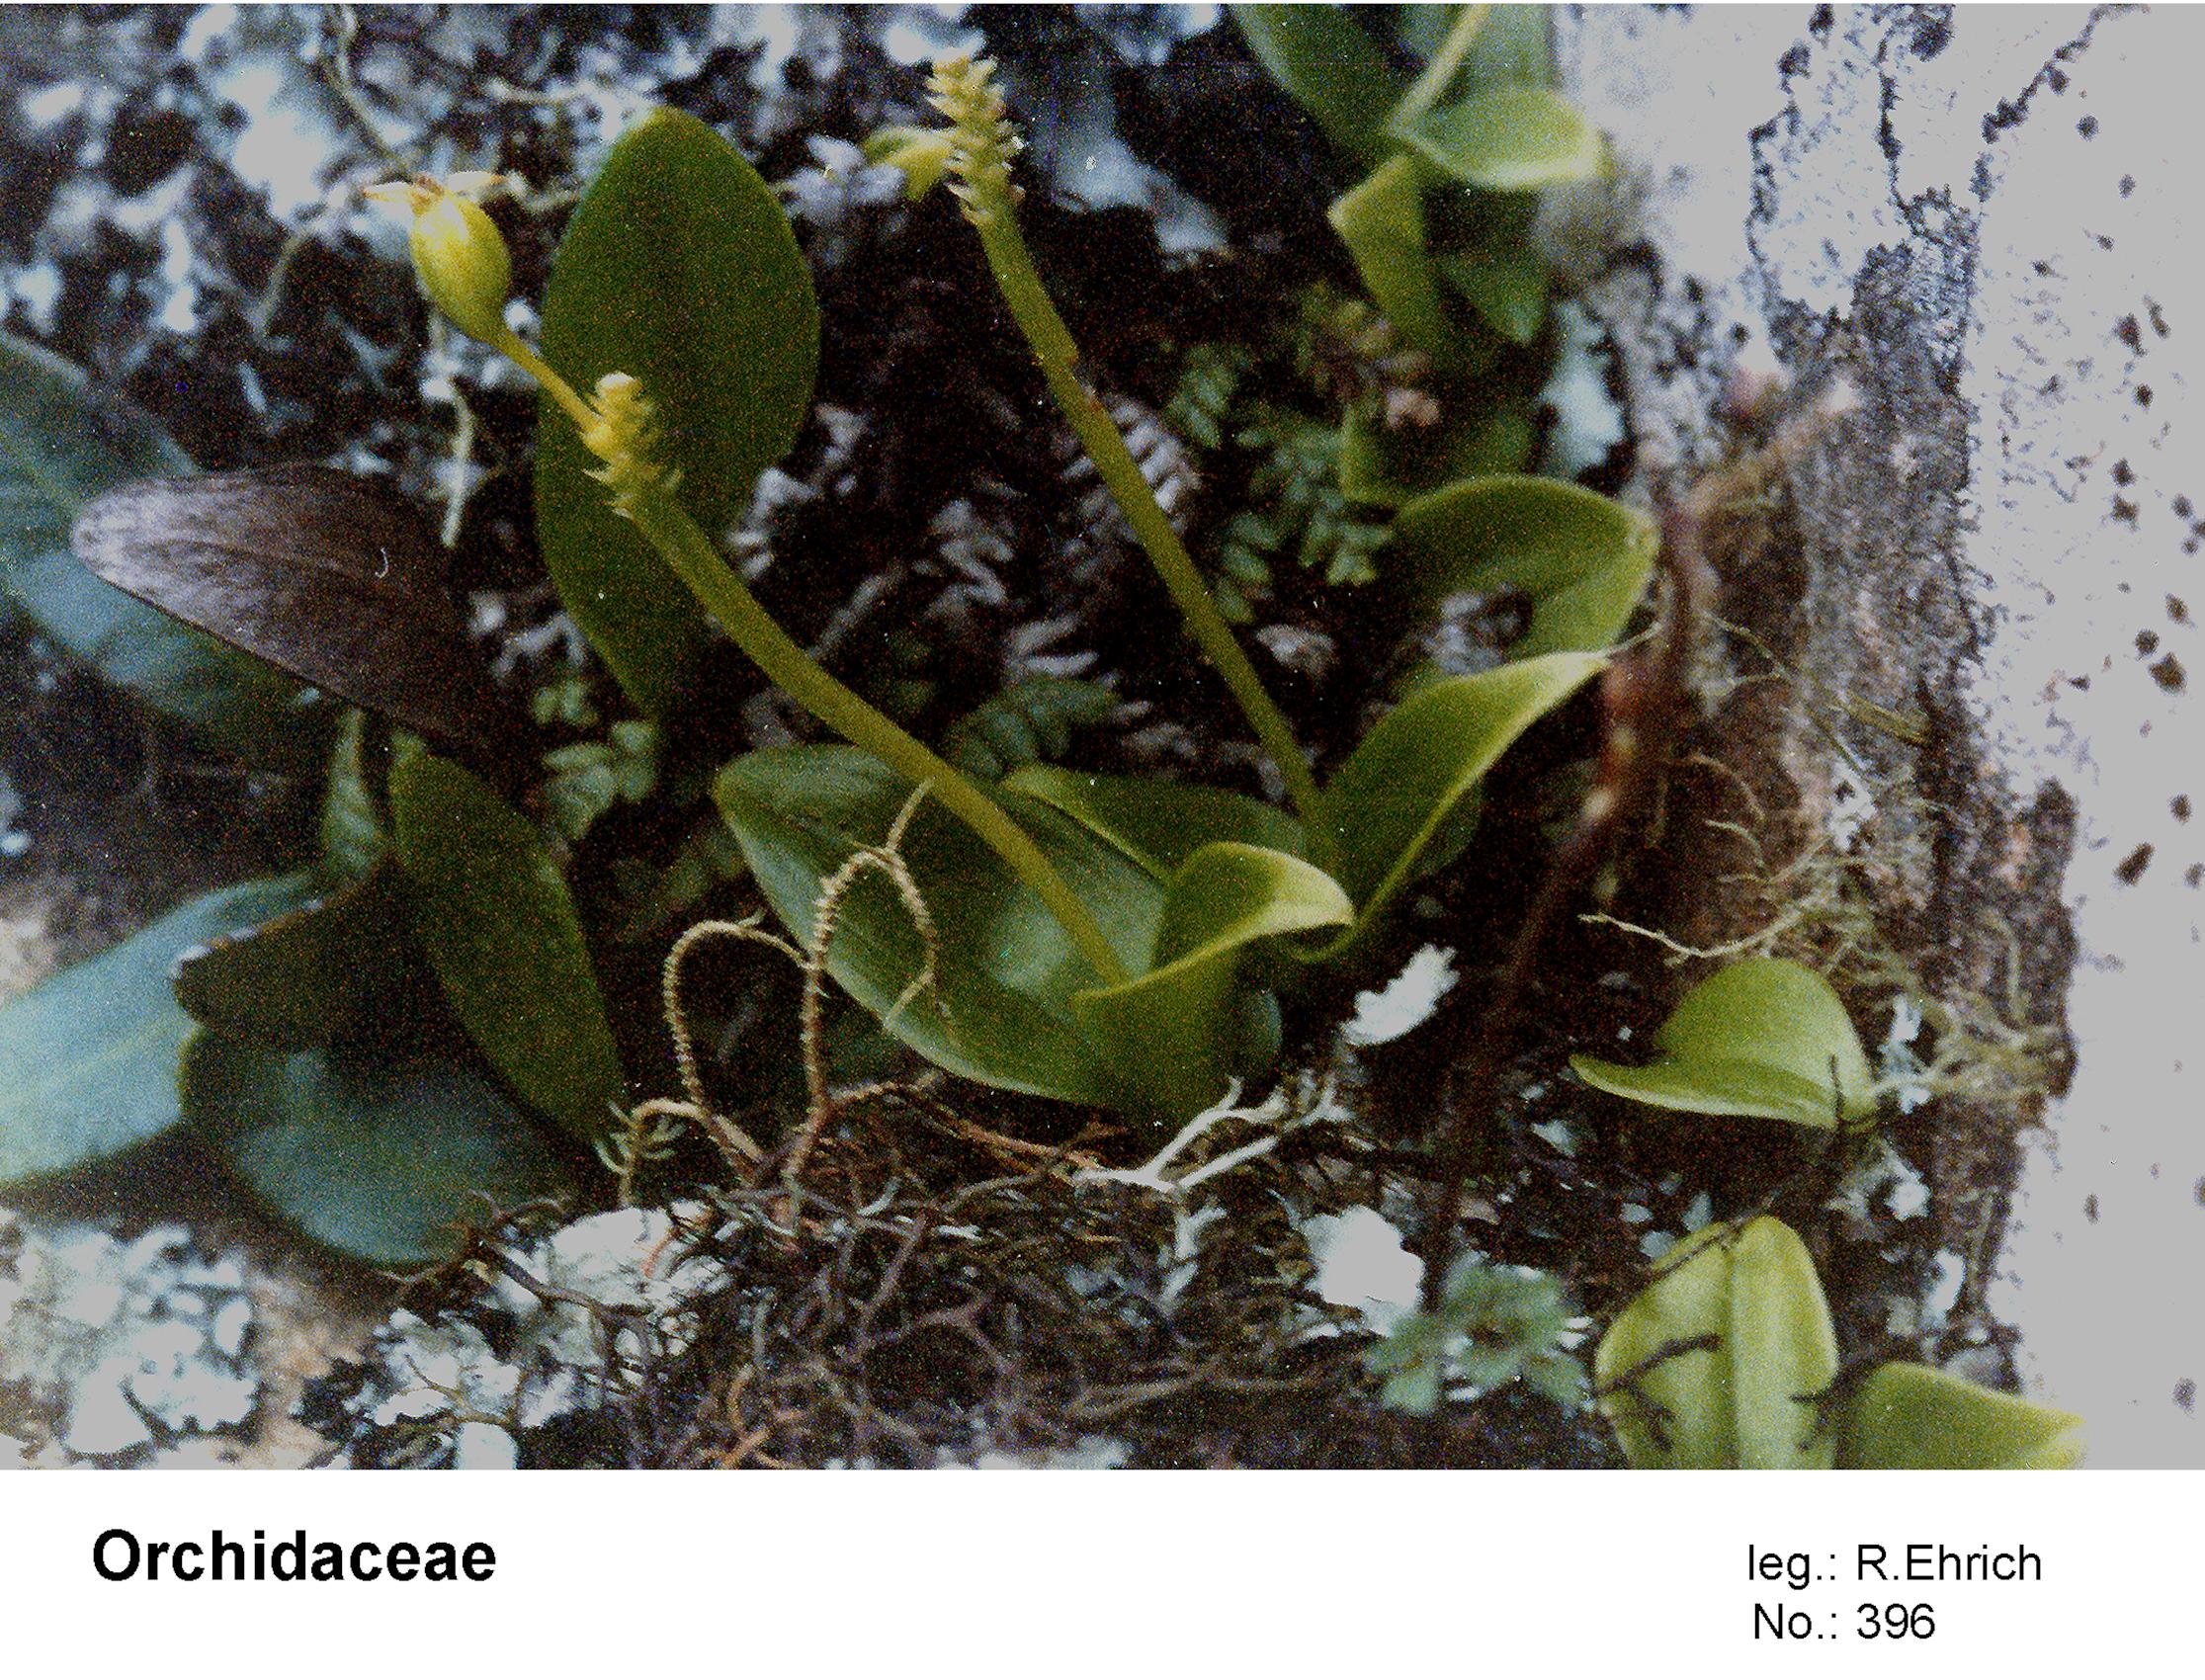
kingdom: Plantae
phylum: Tracheophyta
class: Liliopsida
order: Asparagales
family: Orchidaceae
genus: Malaxis
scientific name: Malaxis
